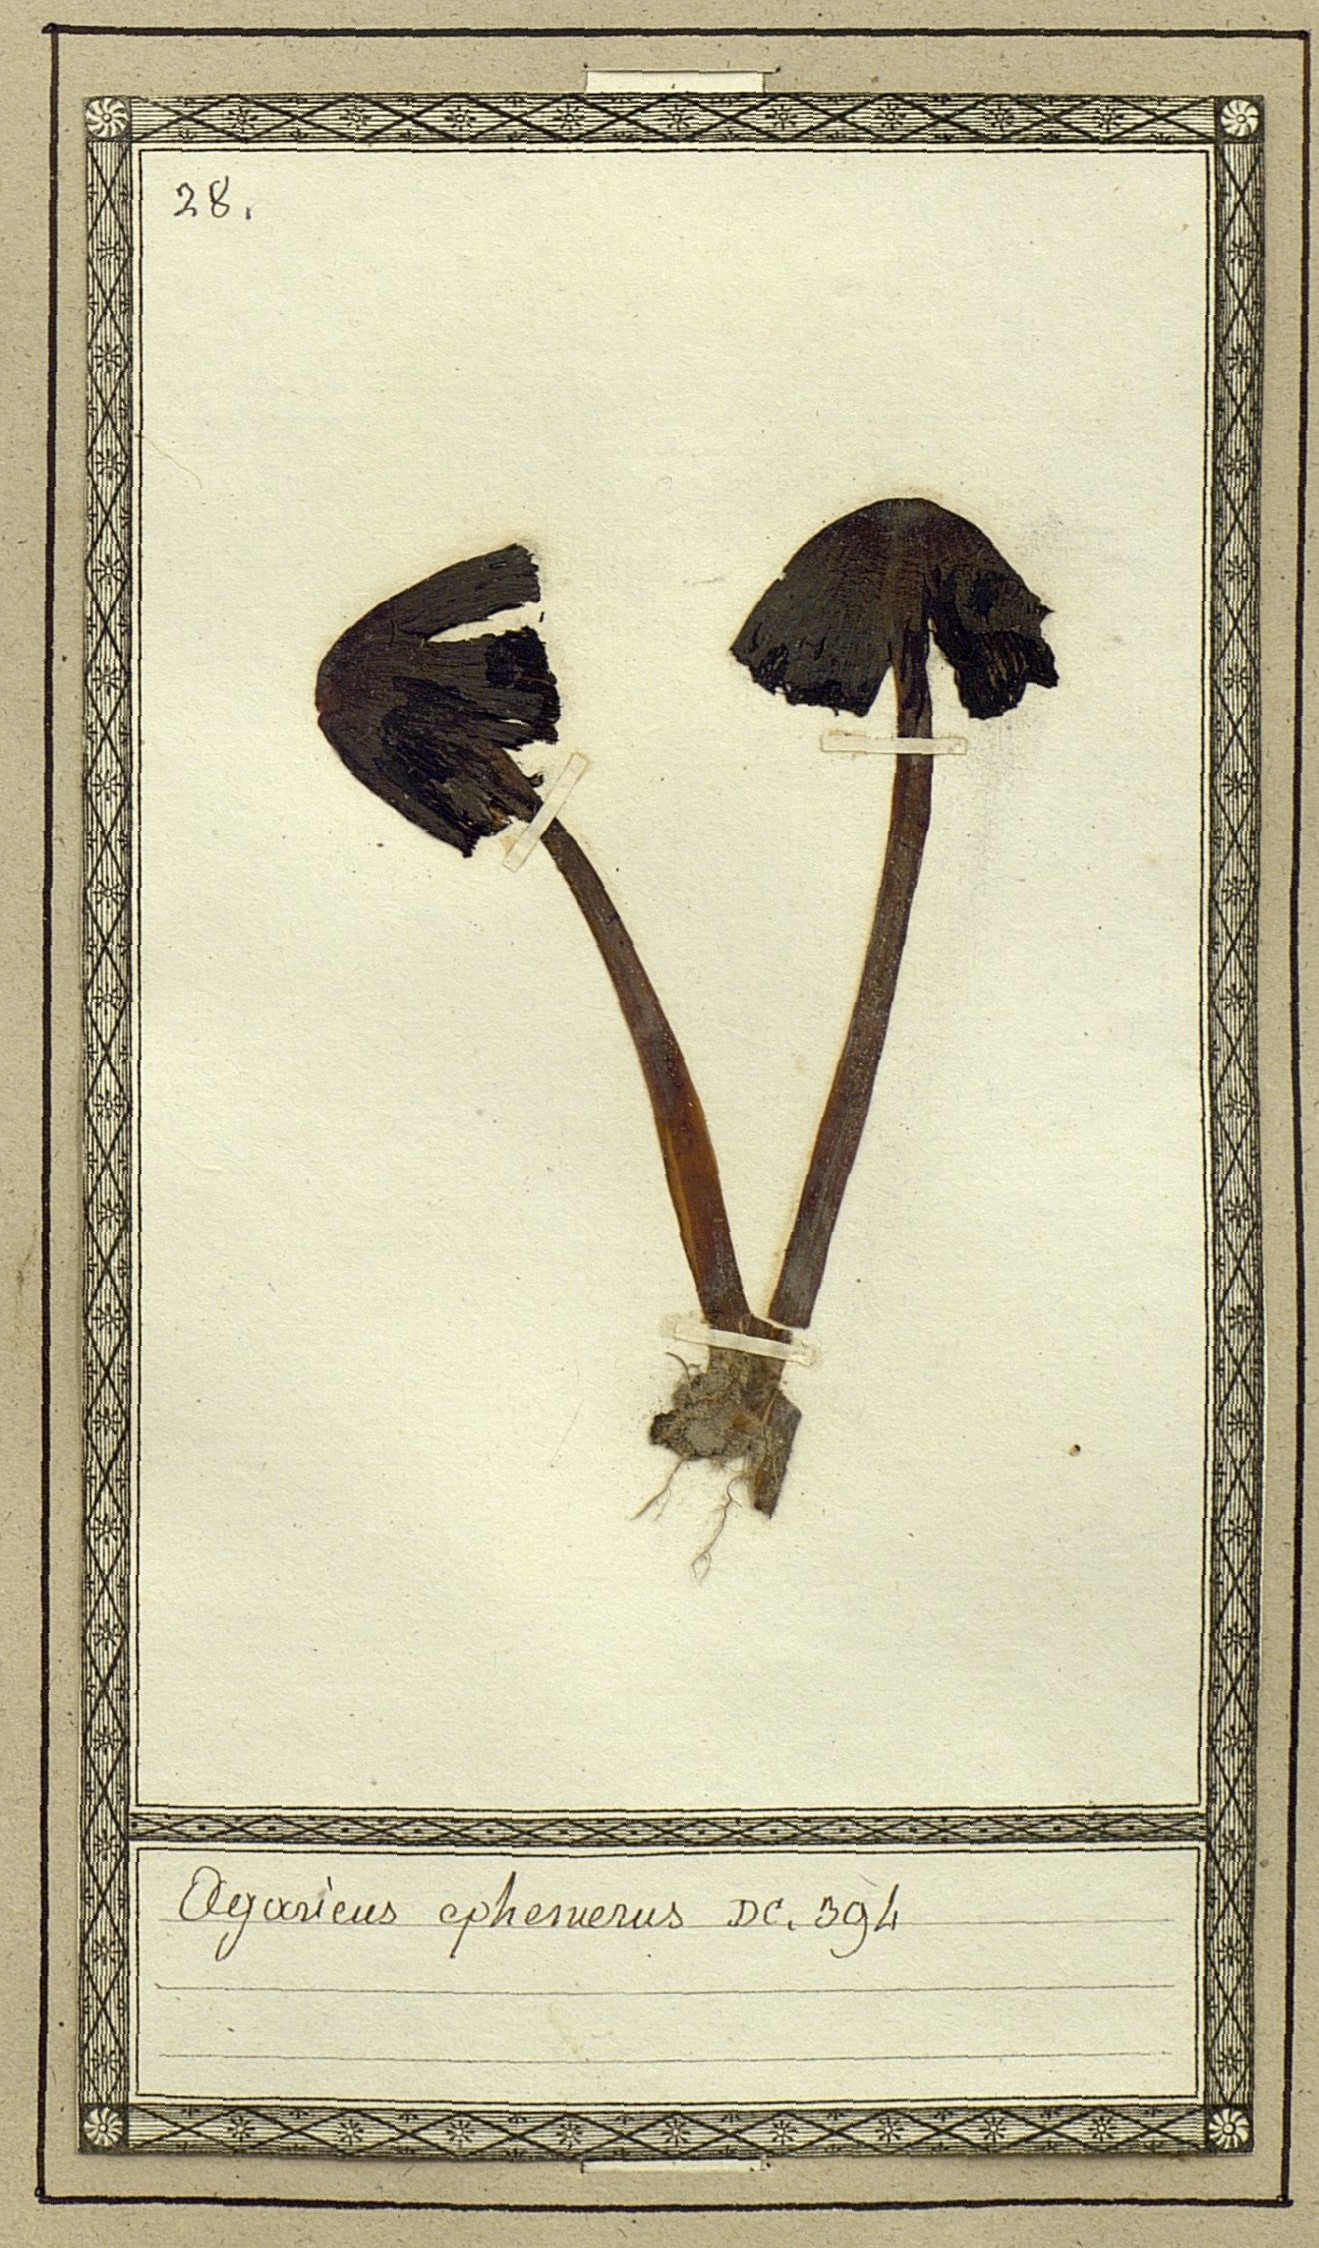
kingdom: Fungi
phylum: Basidiomycota
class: Agaricomycetes
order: Agaricales
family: Psathyrellaceae
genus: Tulosesus
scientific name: Tulosesus ephemerus
